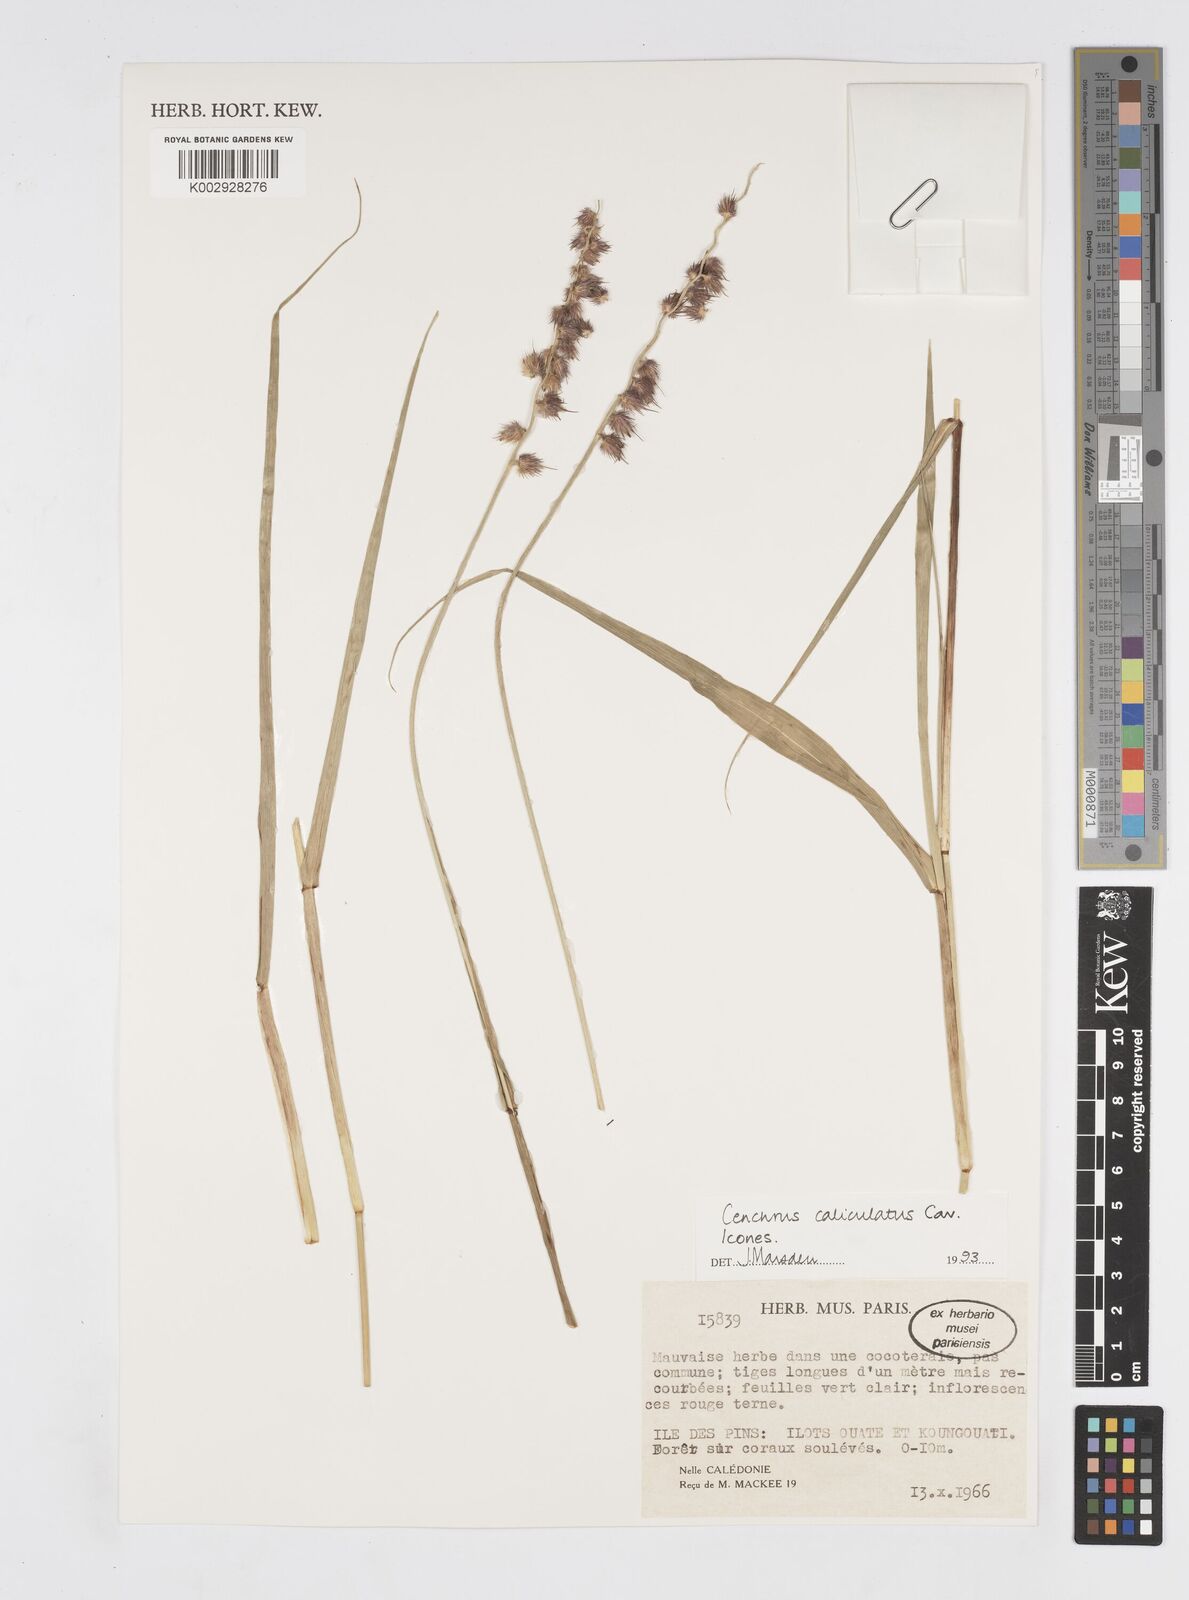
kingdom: Plantae
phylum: Tracheophyta
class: Liliopsida
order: Poales
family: Poaceae
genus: Cenchrus
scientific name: Cenchrus caliculatus
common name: Large bur grass
